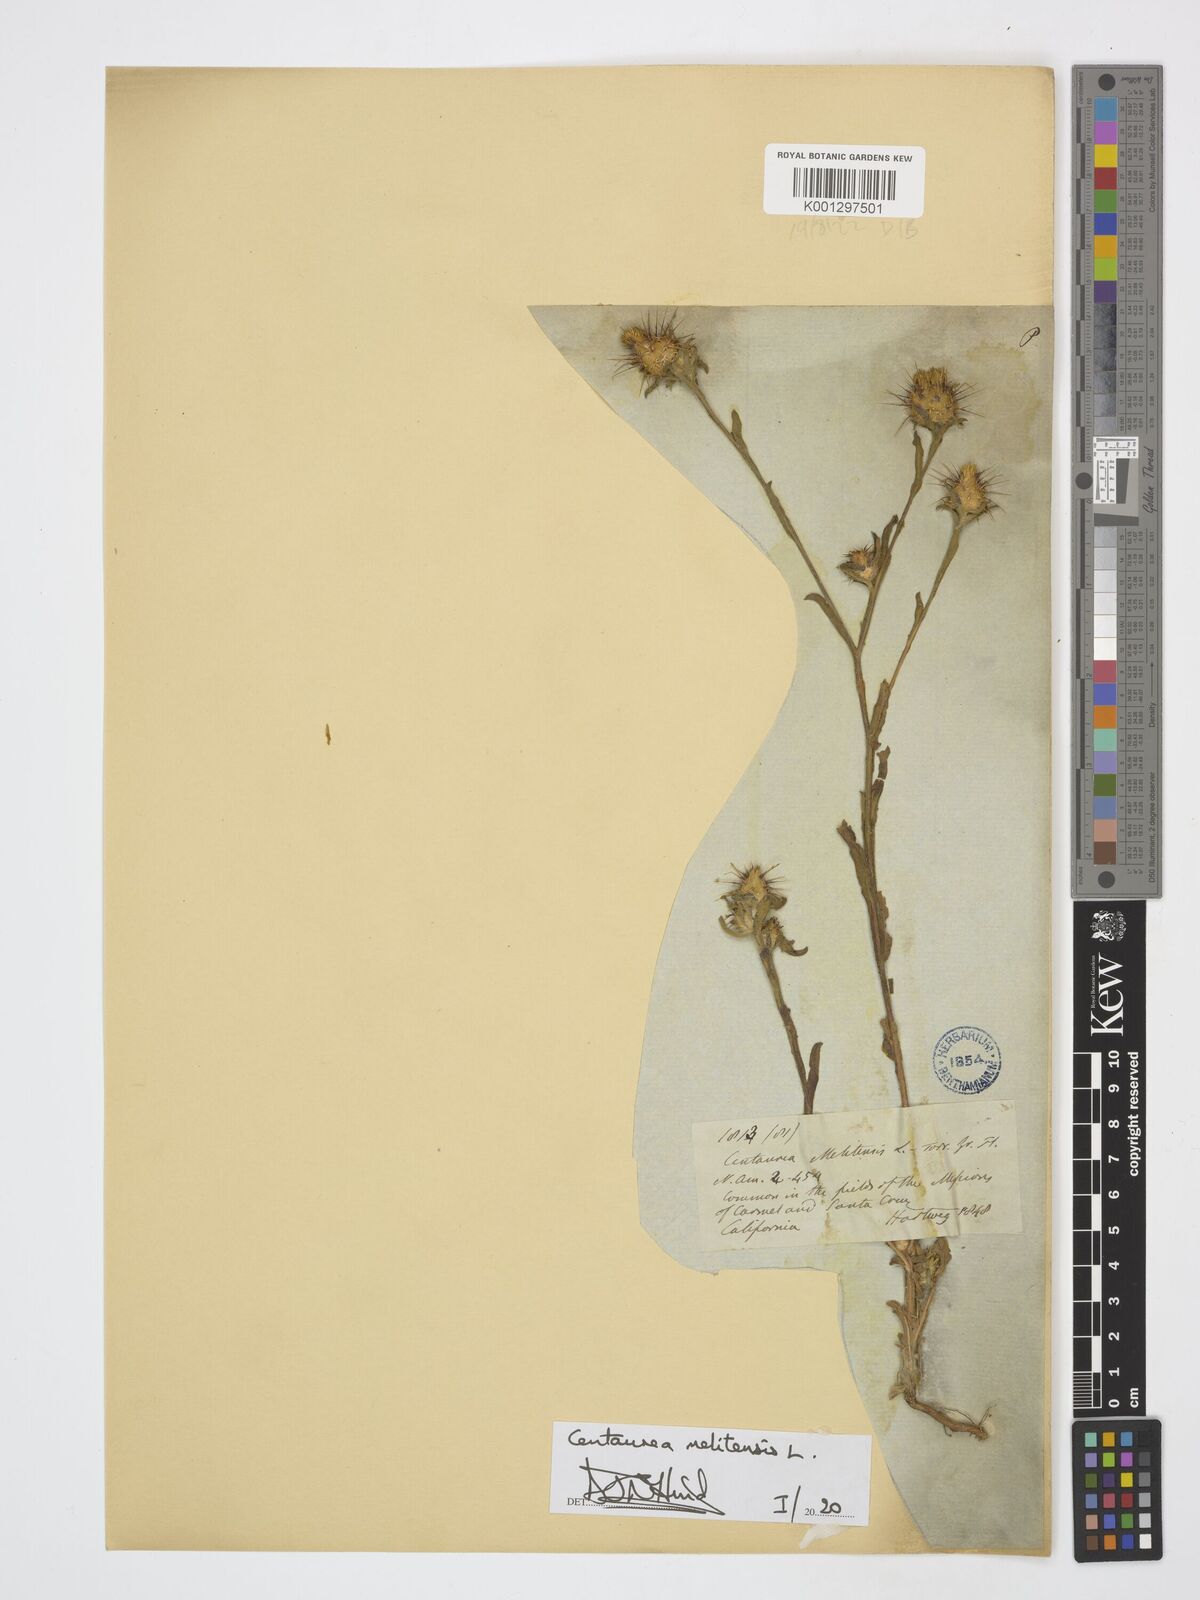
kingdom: Plantae
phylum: Tracheophyta
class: Magnoliopsida
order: Asterales
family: Asteraceae
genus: Centaurea
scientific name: Centaurea melitensis
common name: Maltese star-thistle
